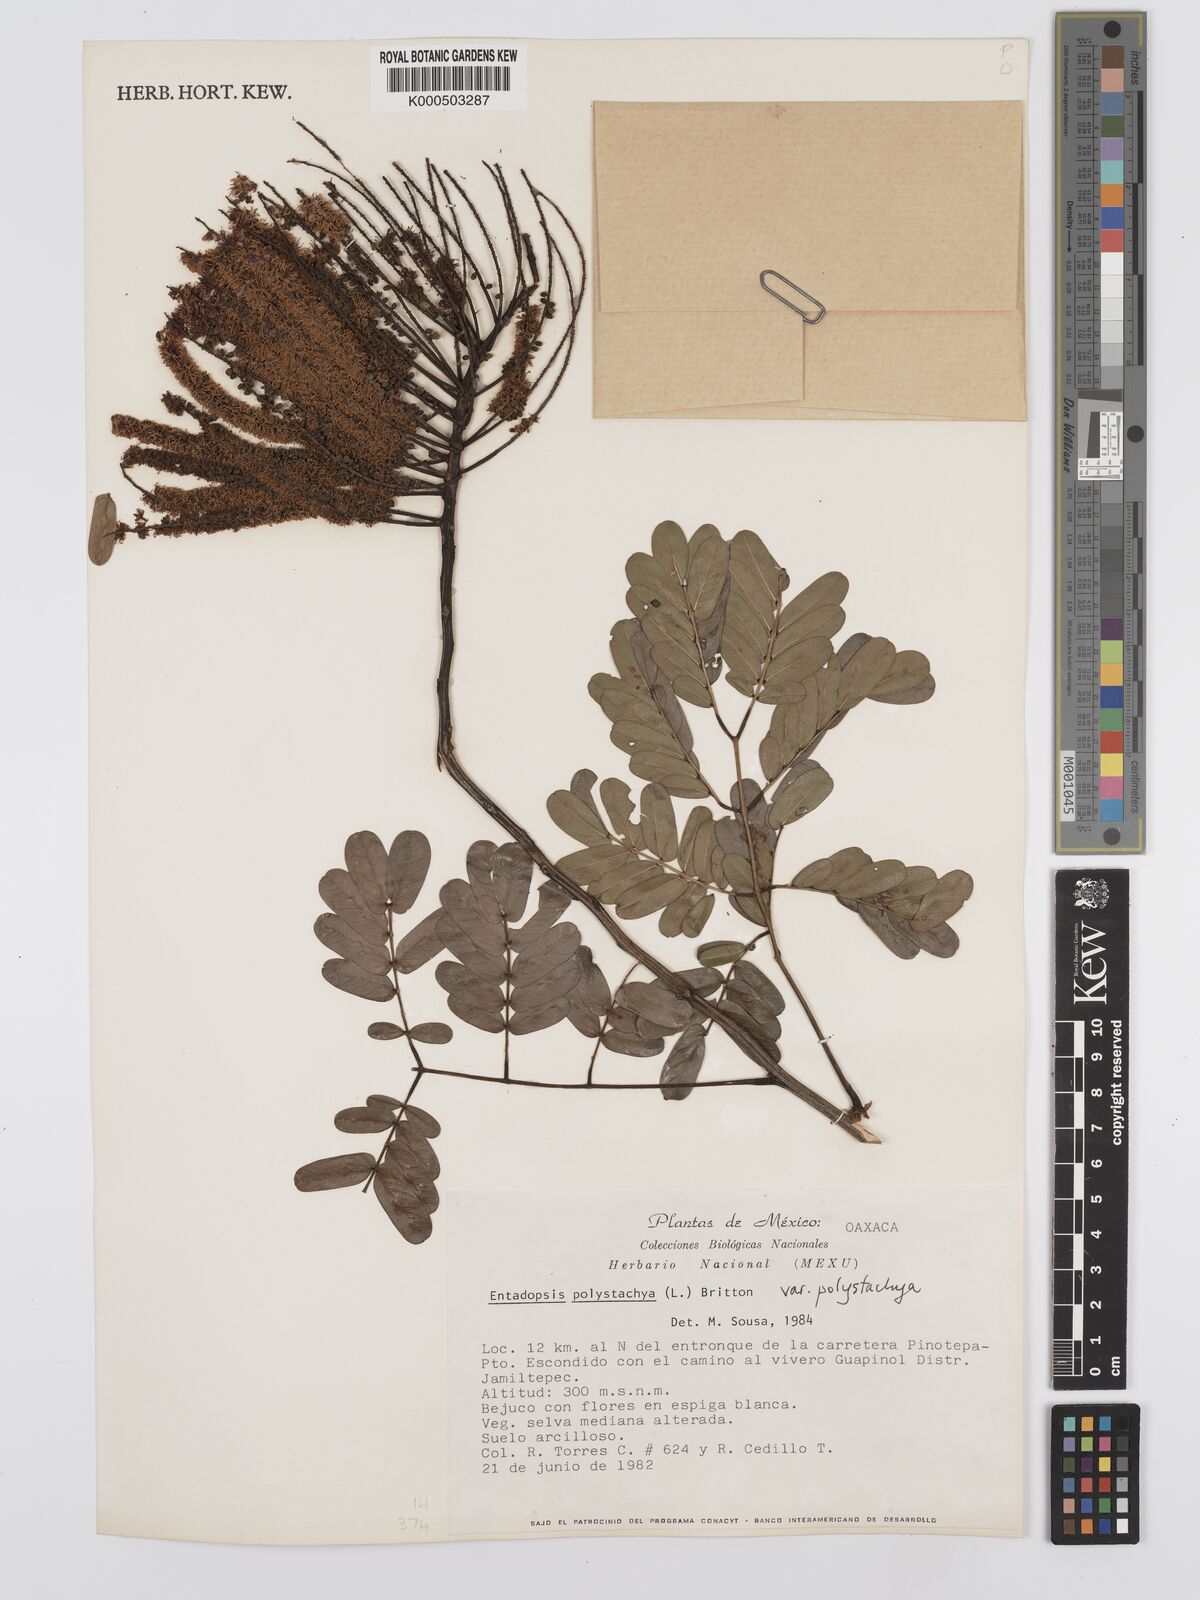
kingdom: Plantae
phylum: Tracheophyta
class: Magnoliopsida
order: Fabales
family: Fabaceae
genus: Entada
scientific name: Entada polystachya
